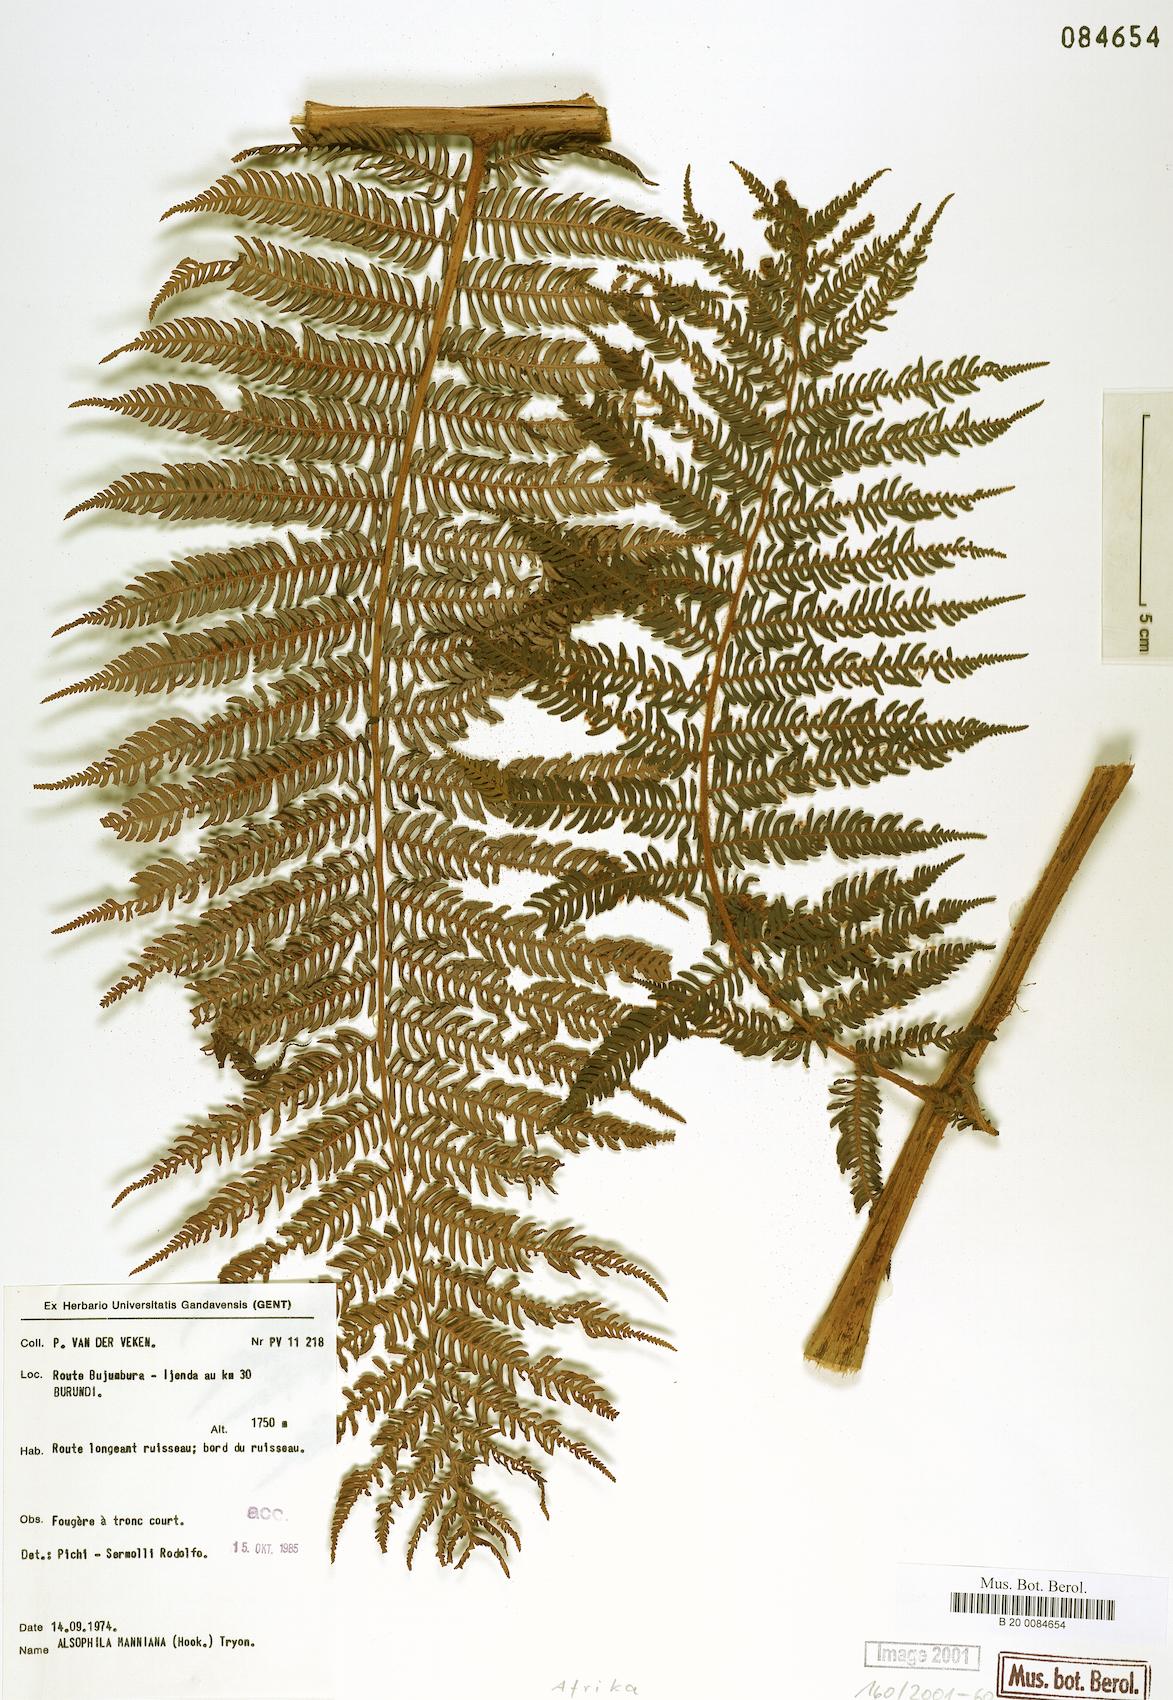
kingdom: Plantae
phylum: Tracheophyta
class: Polypodiopsida
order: Cyatheales
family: Cyatheaceae
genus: Alsophila
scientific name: Alsophila manniana
